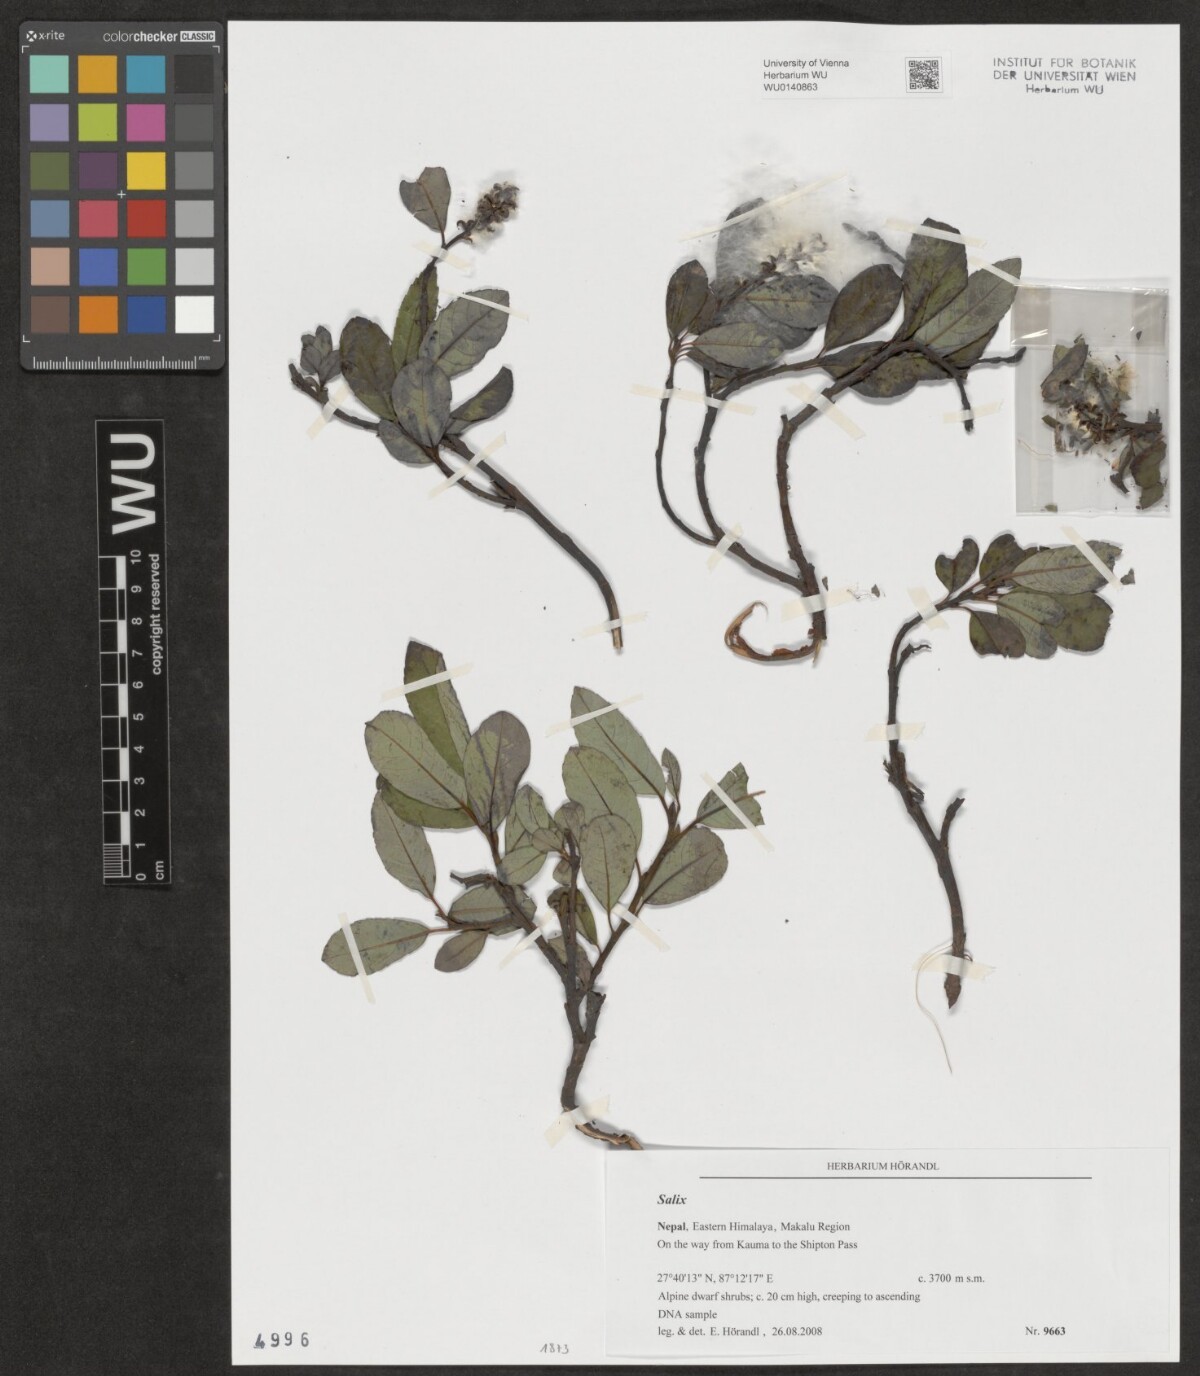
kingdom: Plantae
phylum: Tracheophyta
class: Magnoliopsida
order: Malpighiales
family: Salicaceae
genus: Salix
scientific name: Salix
